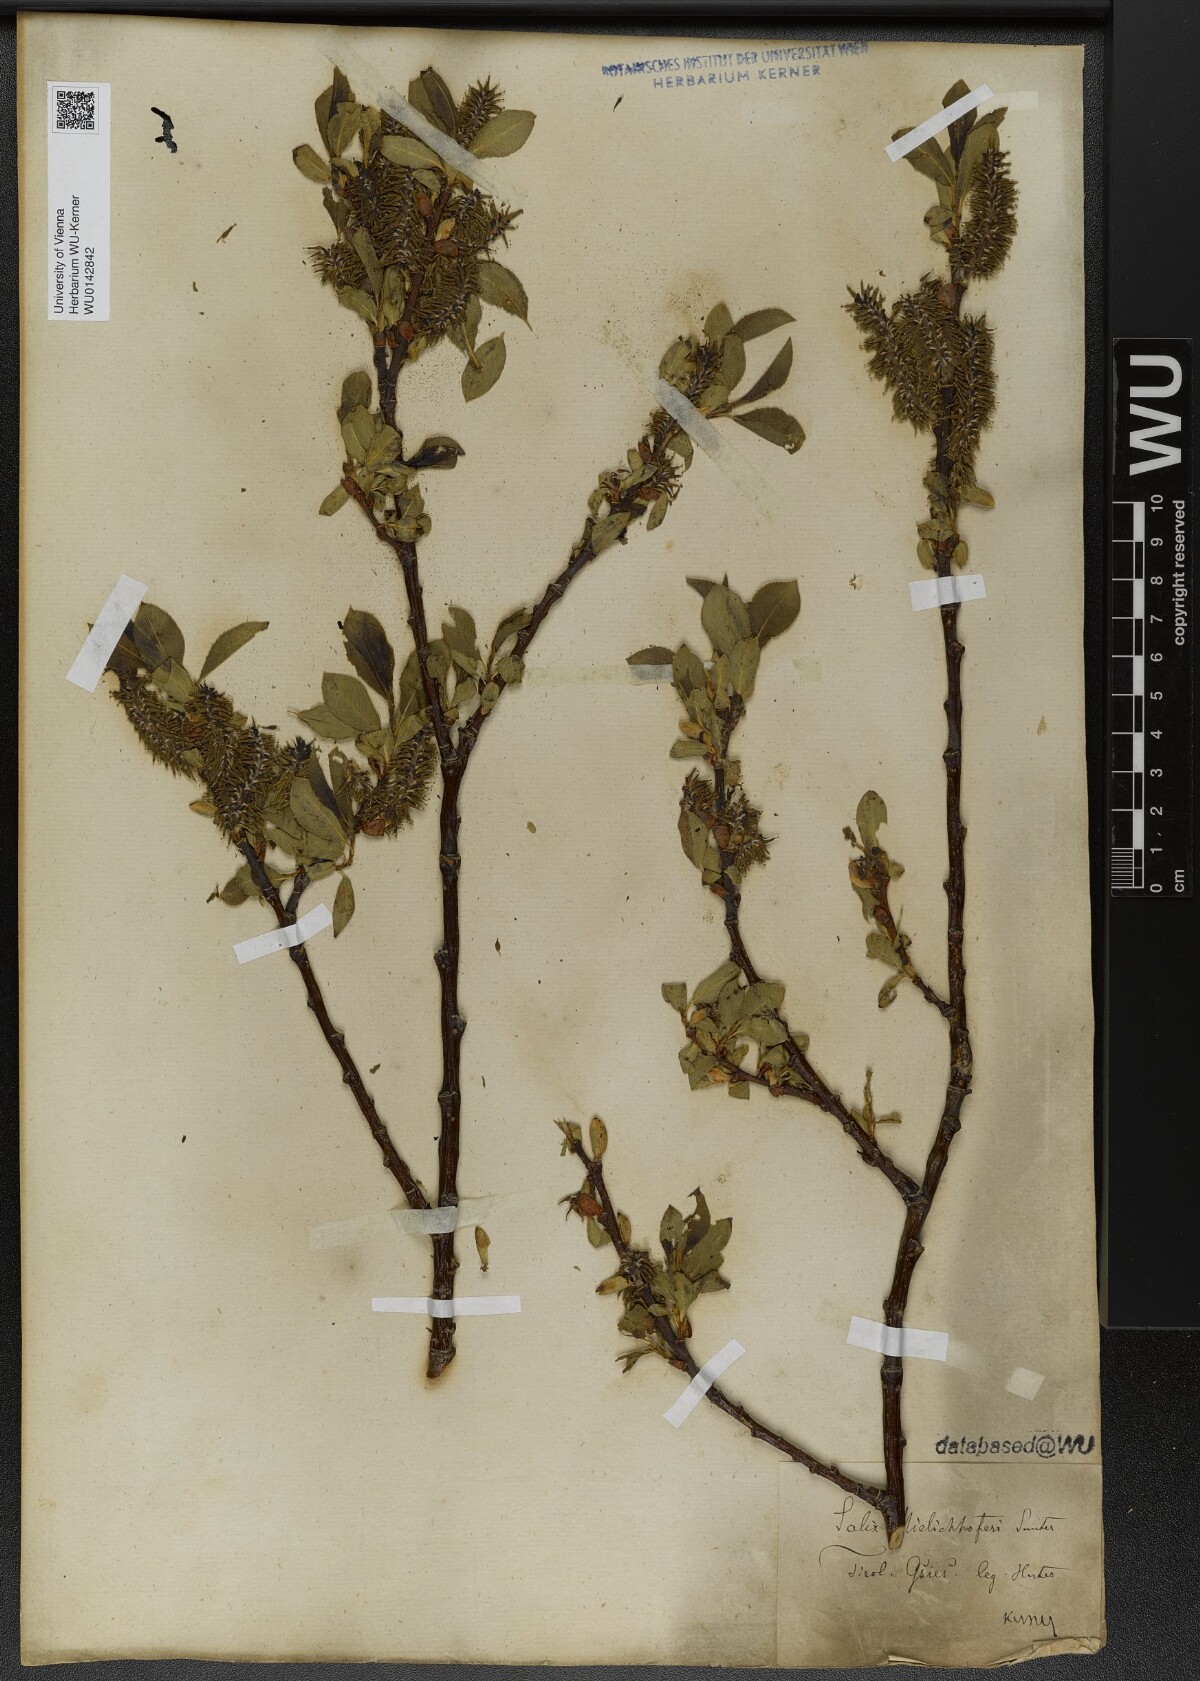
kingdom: Plantae
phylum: Tracheophyta
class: Magnoliopsida
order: Malpighiales
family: Salicaceae
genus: Salix
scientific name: Salix mielichhoferi
